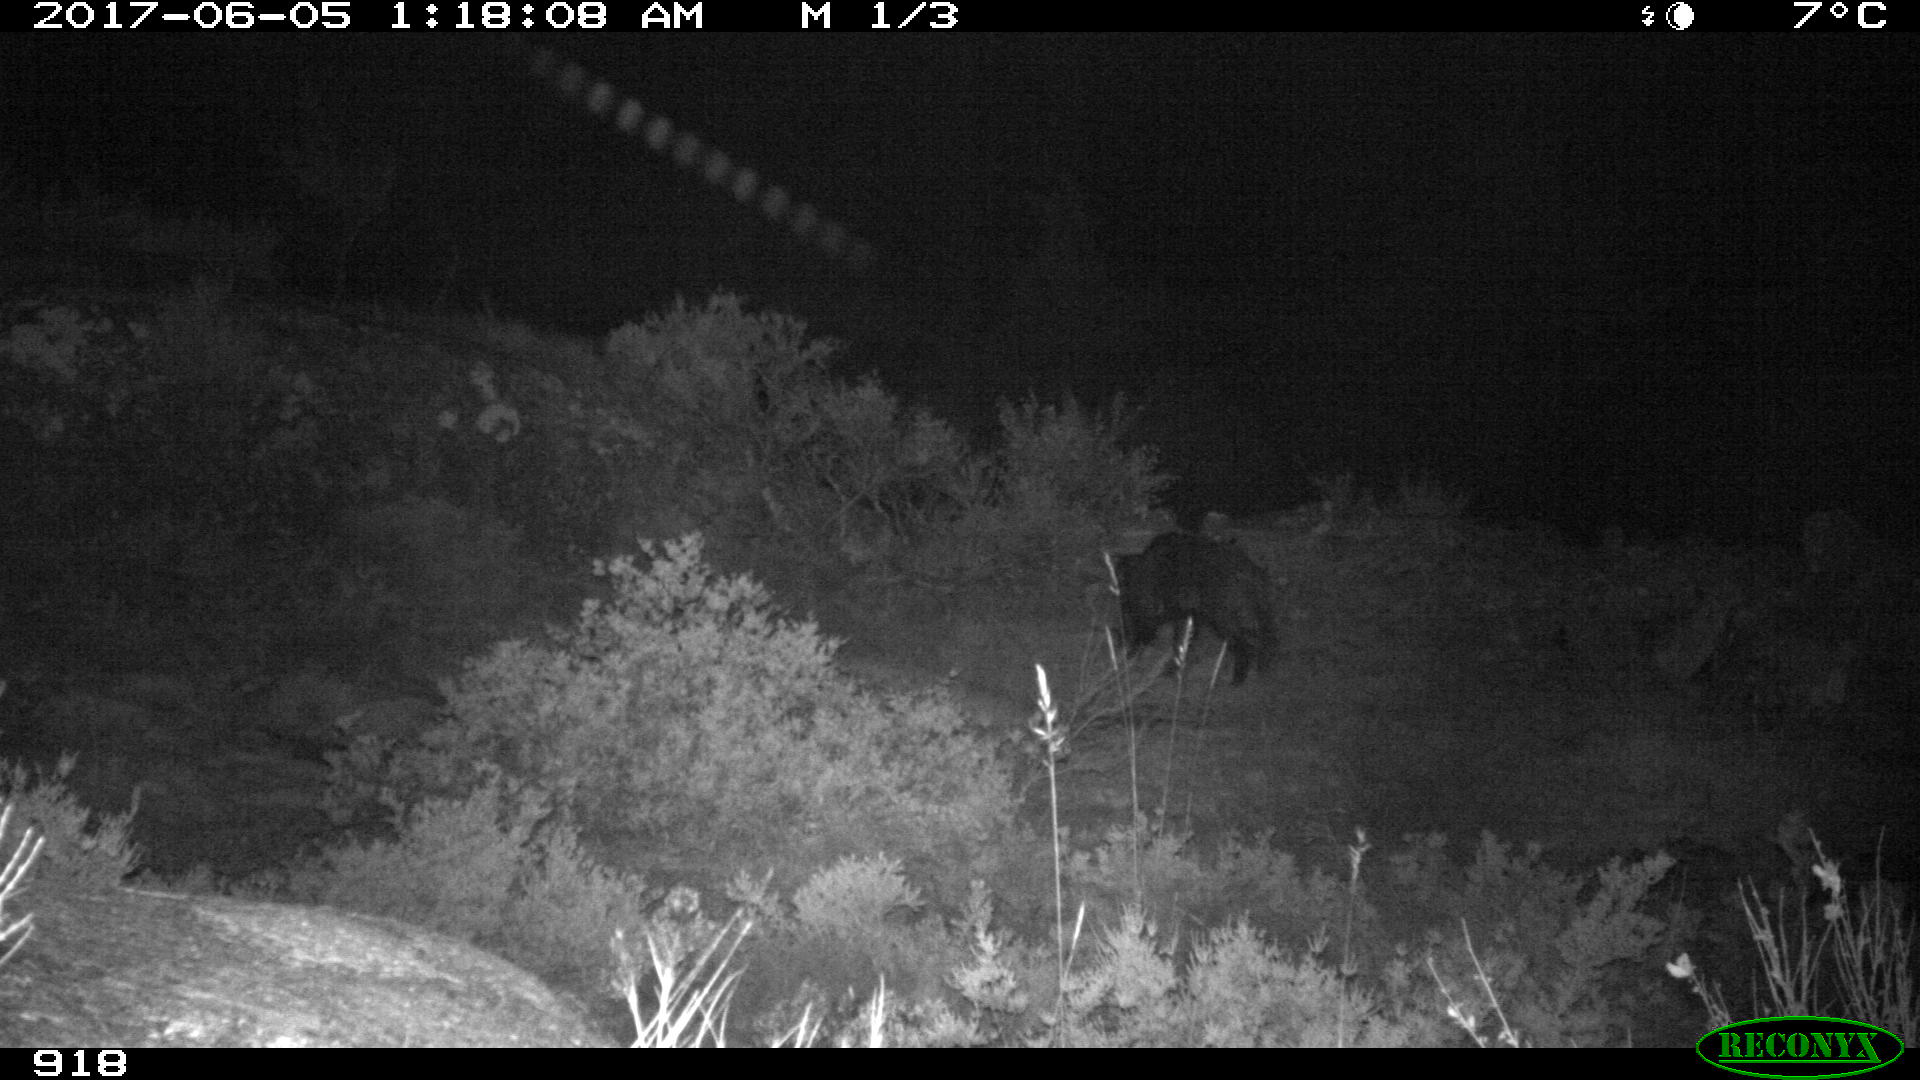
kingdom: Animalia
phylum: Chordata
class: Mammalia
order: Artiodactyla
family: Suidae
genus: Sus
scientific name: Sus scrofa
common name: Wild boar
